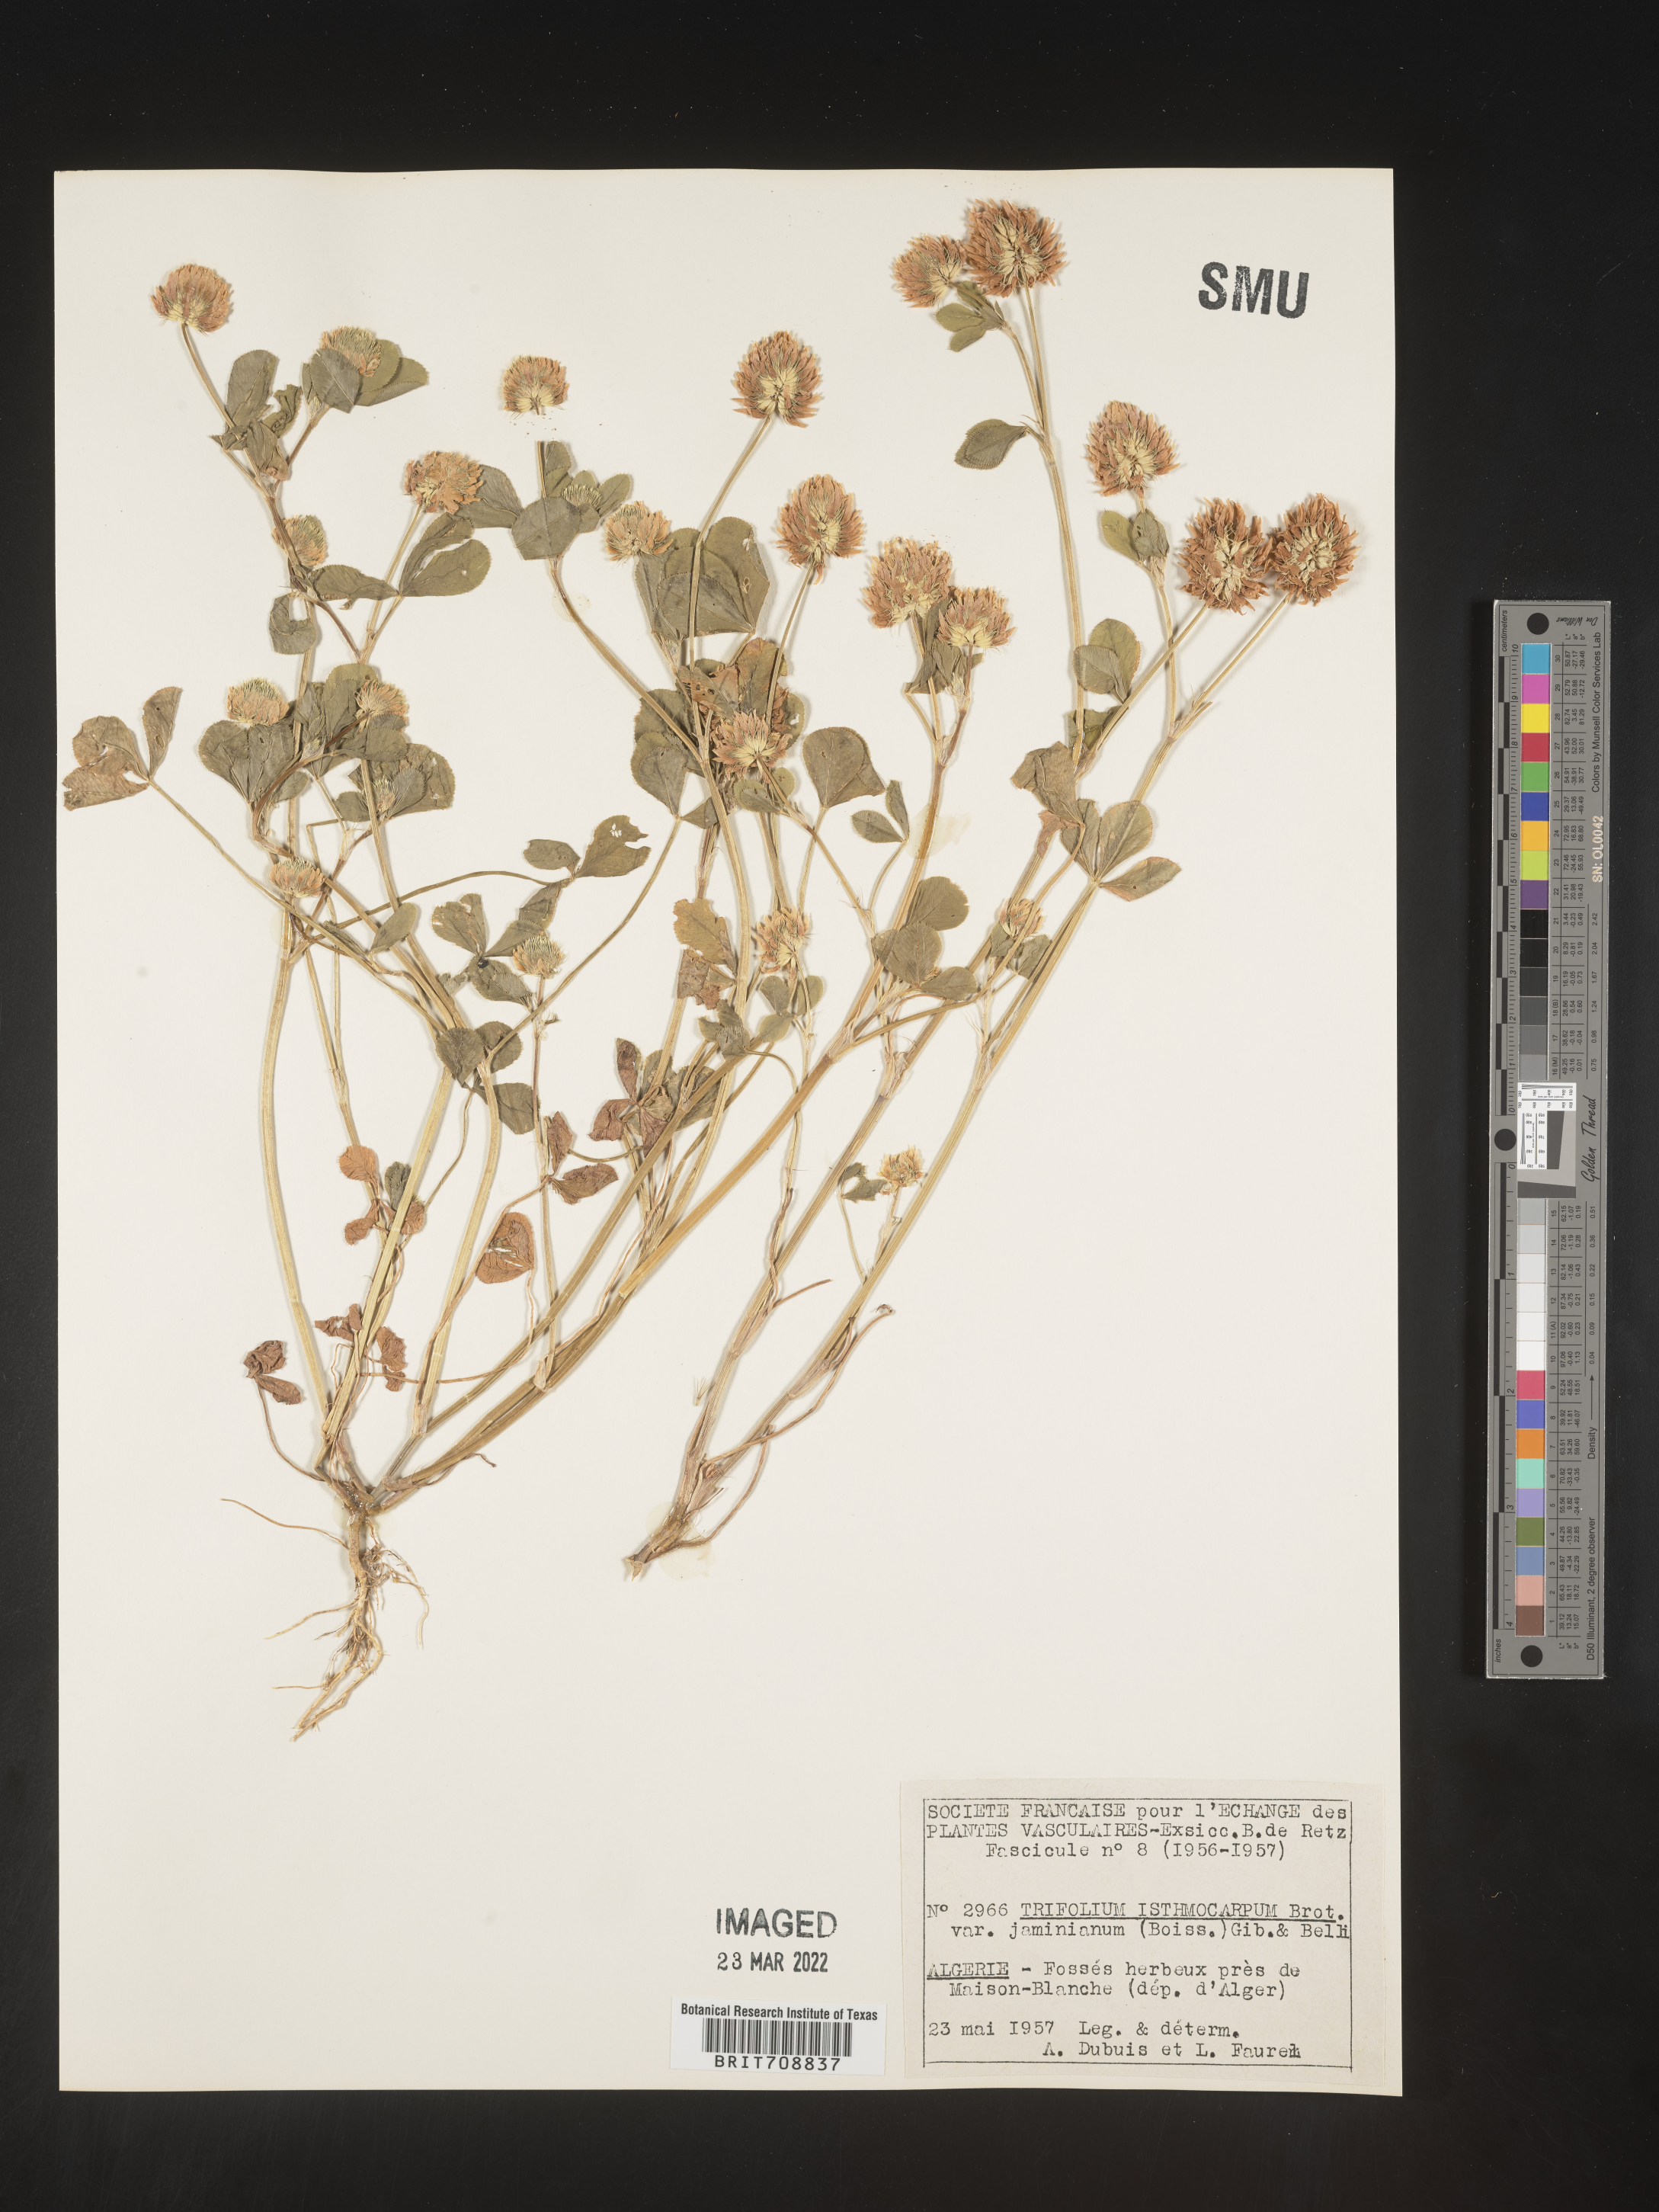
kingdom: Plantae
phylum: Tracheophyta
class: Magnoliopsida
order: Fabales
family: Fabaceae
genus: Trifolium
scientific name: Trifolium
